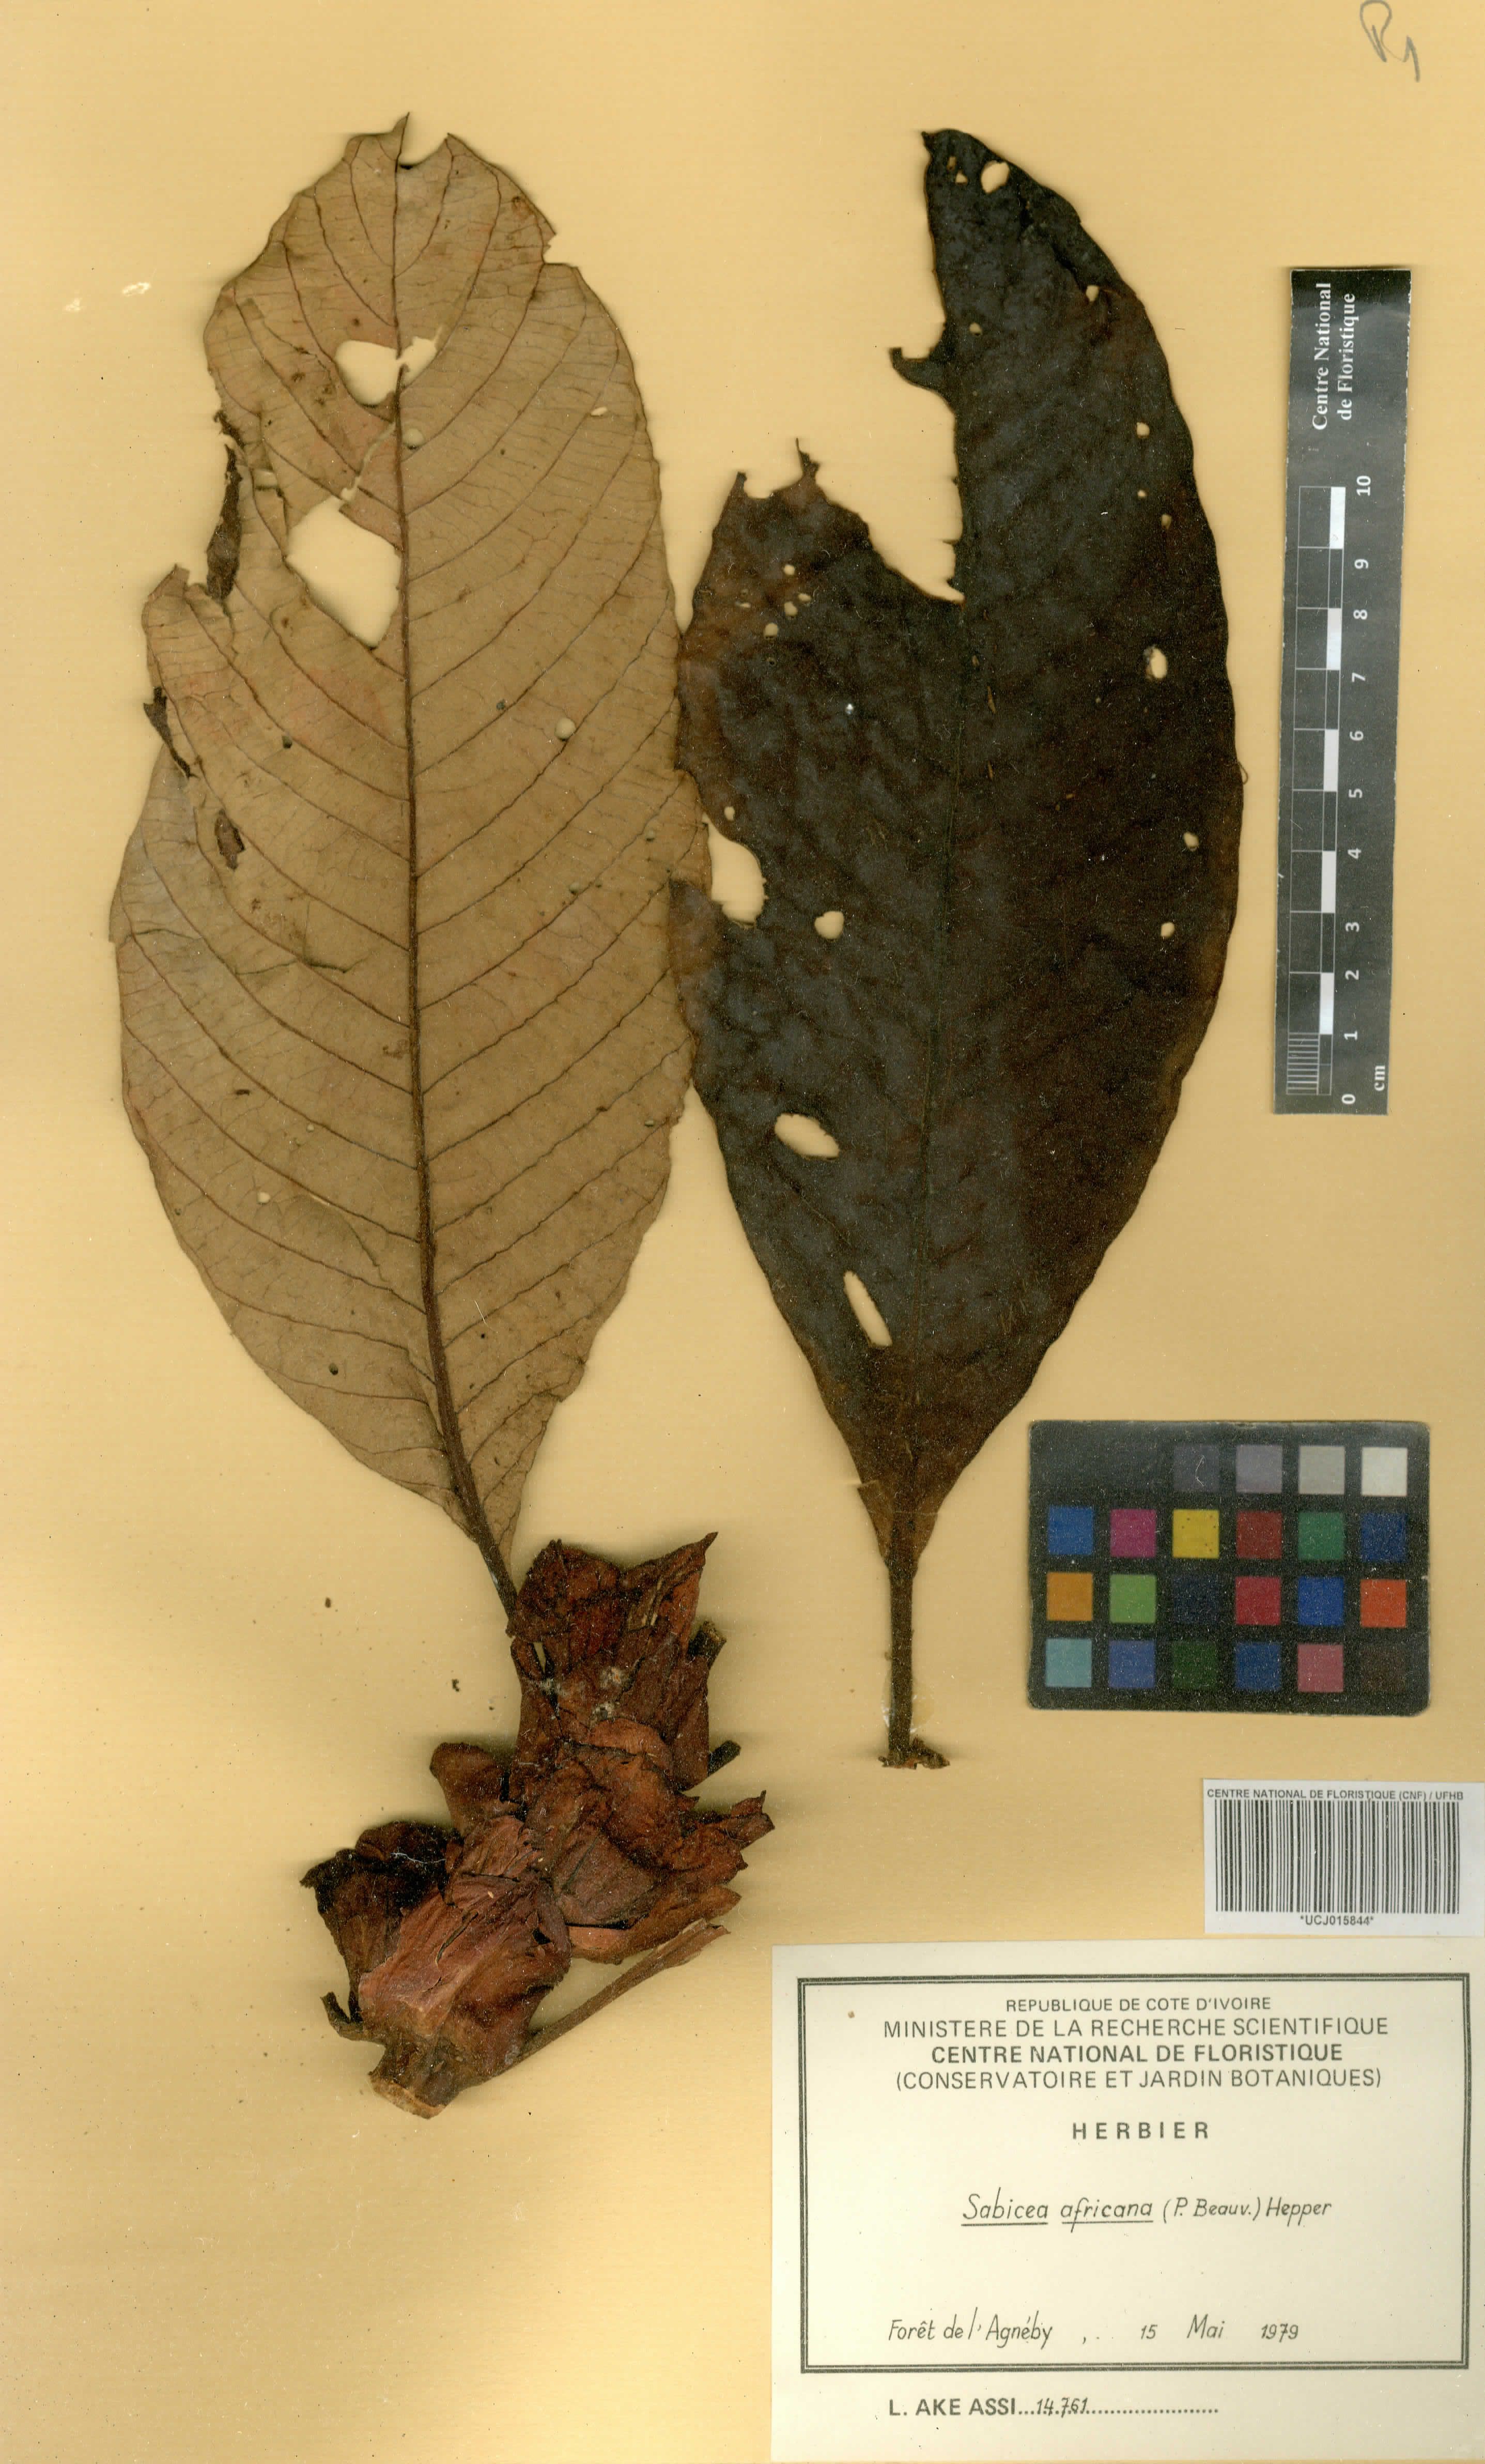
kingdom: Plantae
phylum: Tracheophyta
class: Magnoliopsida
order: Gentianales
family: Rubiaceae
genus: Stipularia
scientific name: Stipularia africana
